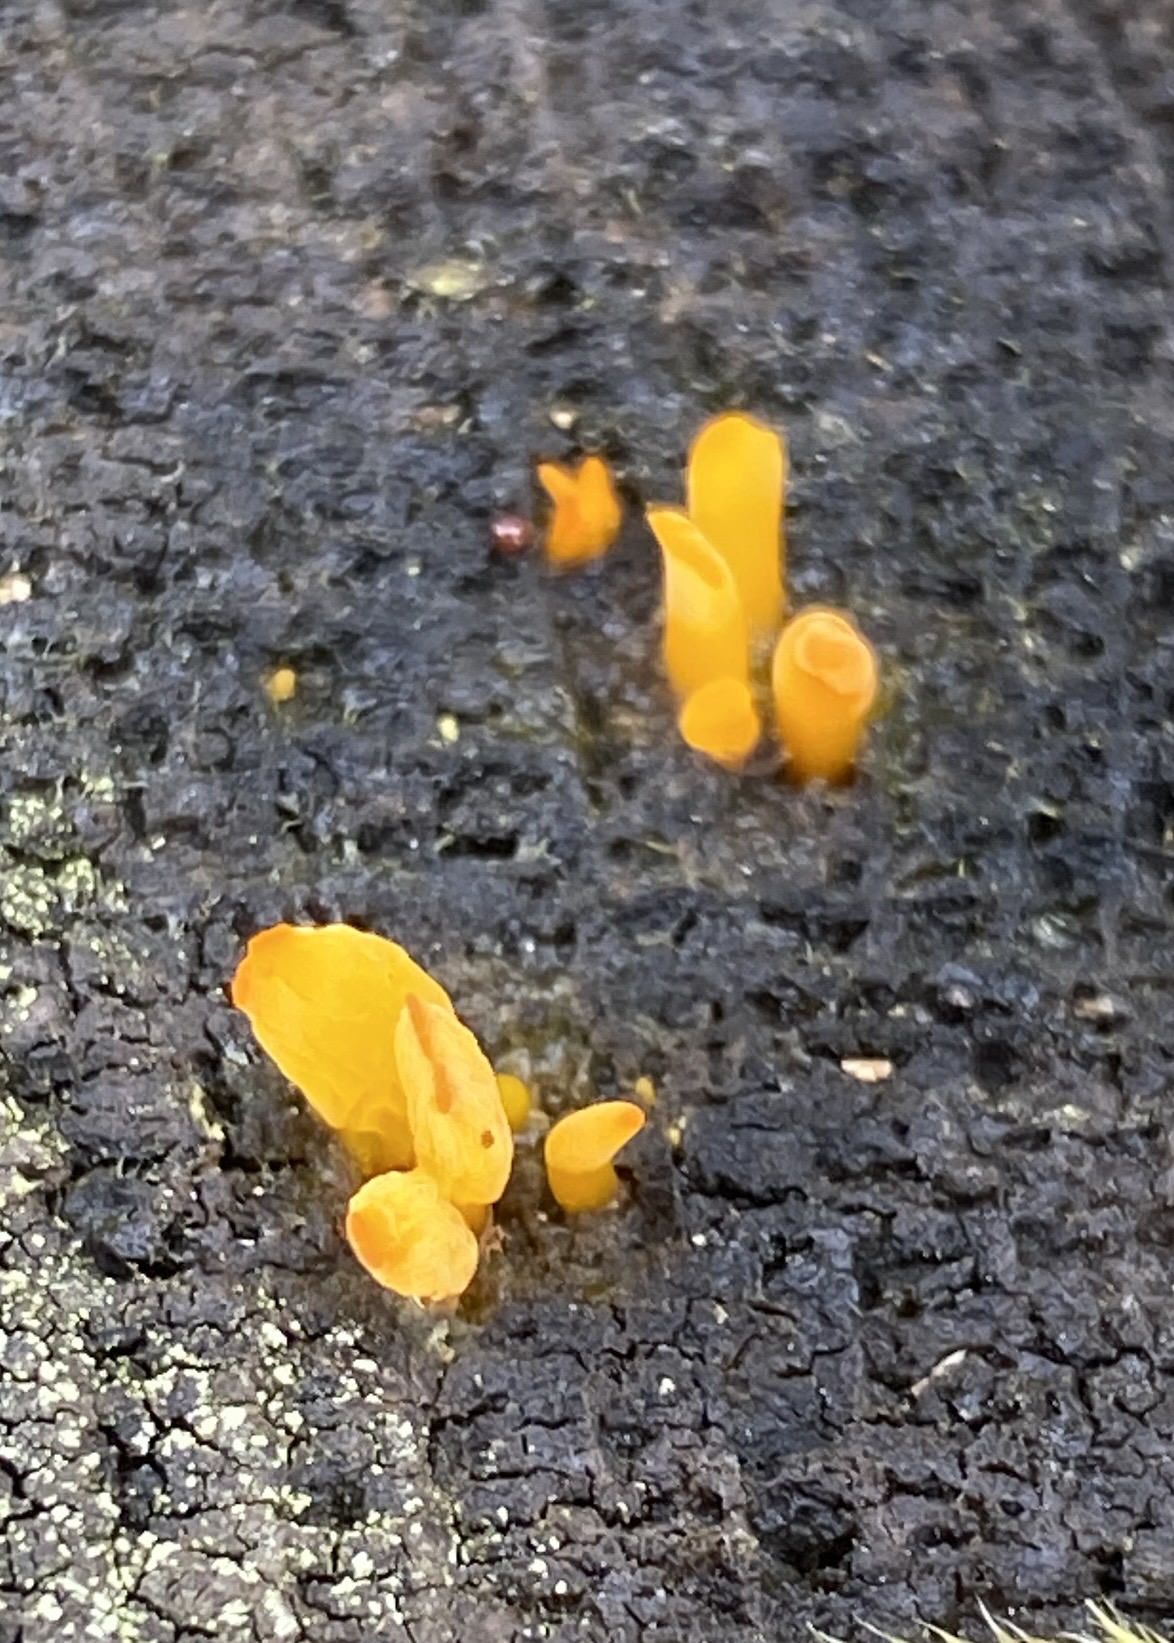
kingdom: Fungi
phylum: Basidiomycota
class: Dacrymycetes
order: Dacrymycetales
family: Dacrymycetaceae
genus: Calocera
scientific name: Calocera
